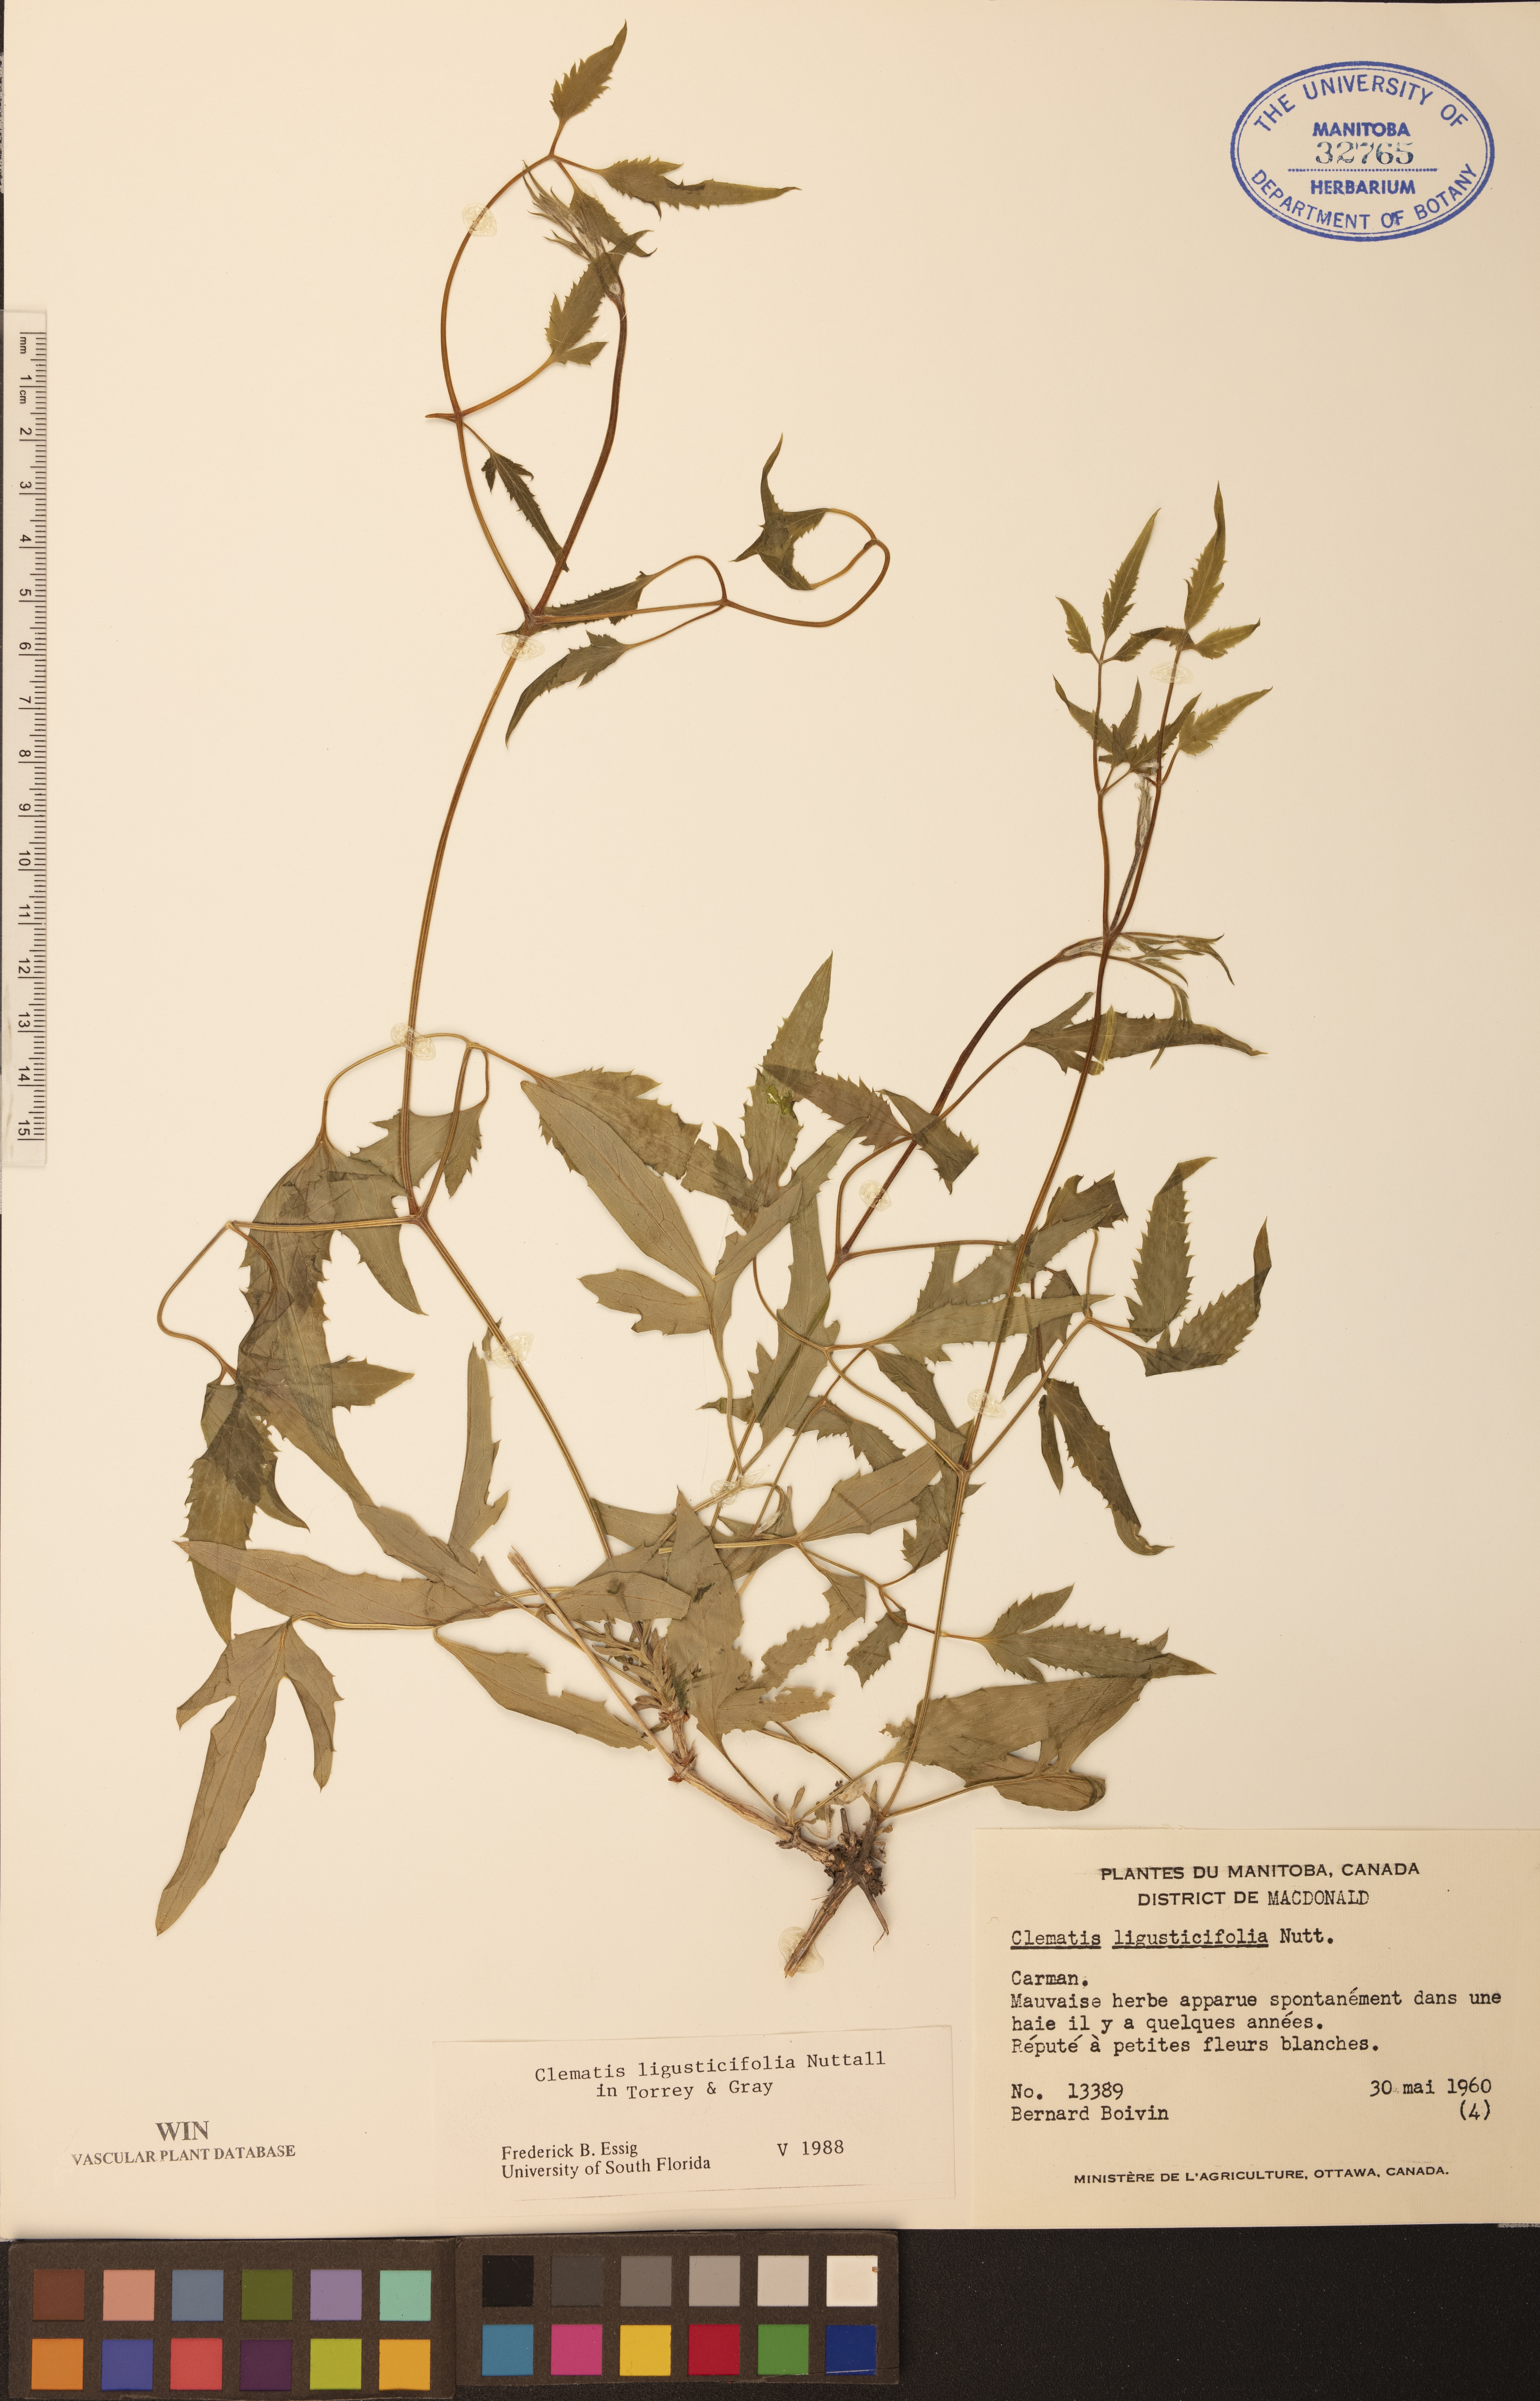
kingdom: Plantae
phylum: Tracheophyta
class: Magnoliopsida
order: Ranunculales
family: Ranunculaceae
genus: Clematis
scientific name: Clematis ligusticifolia
